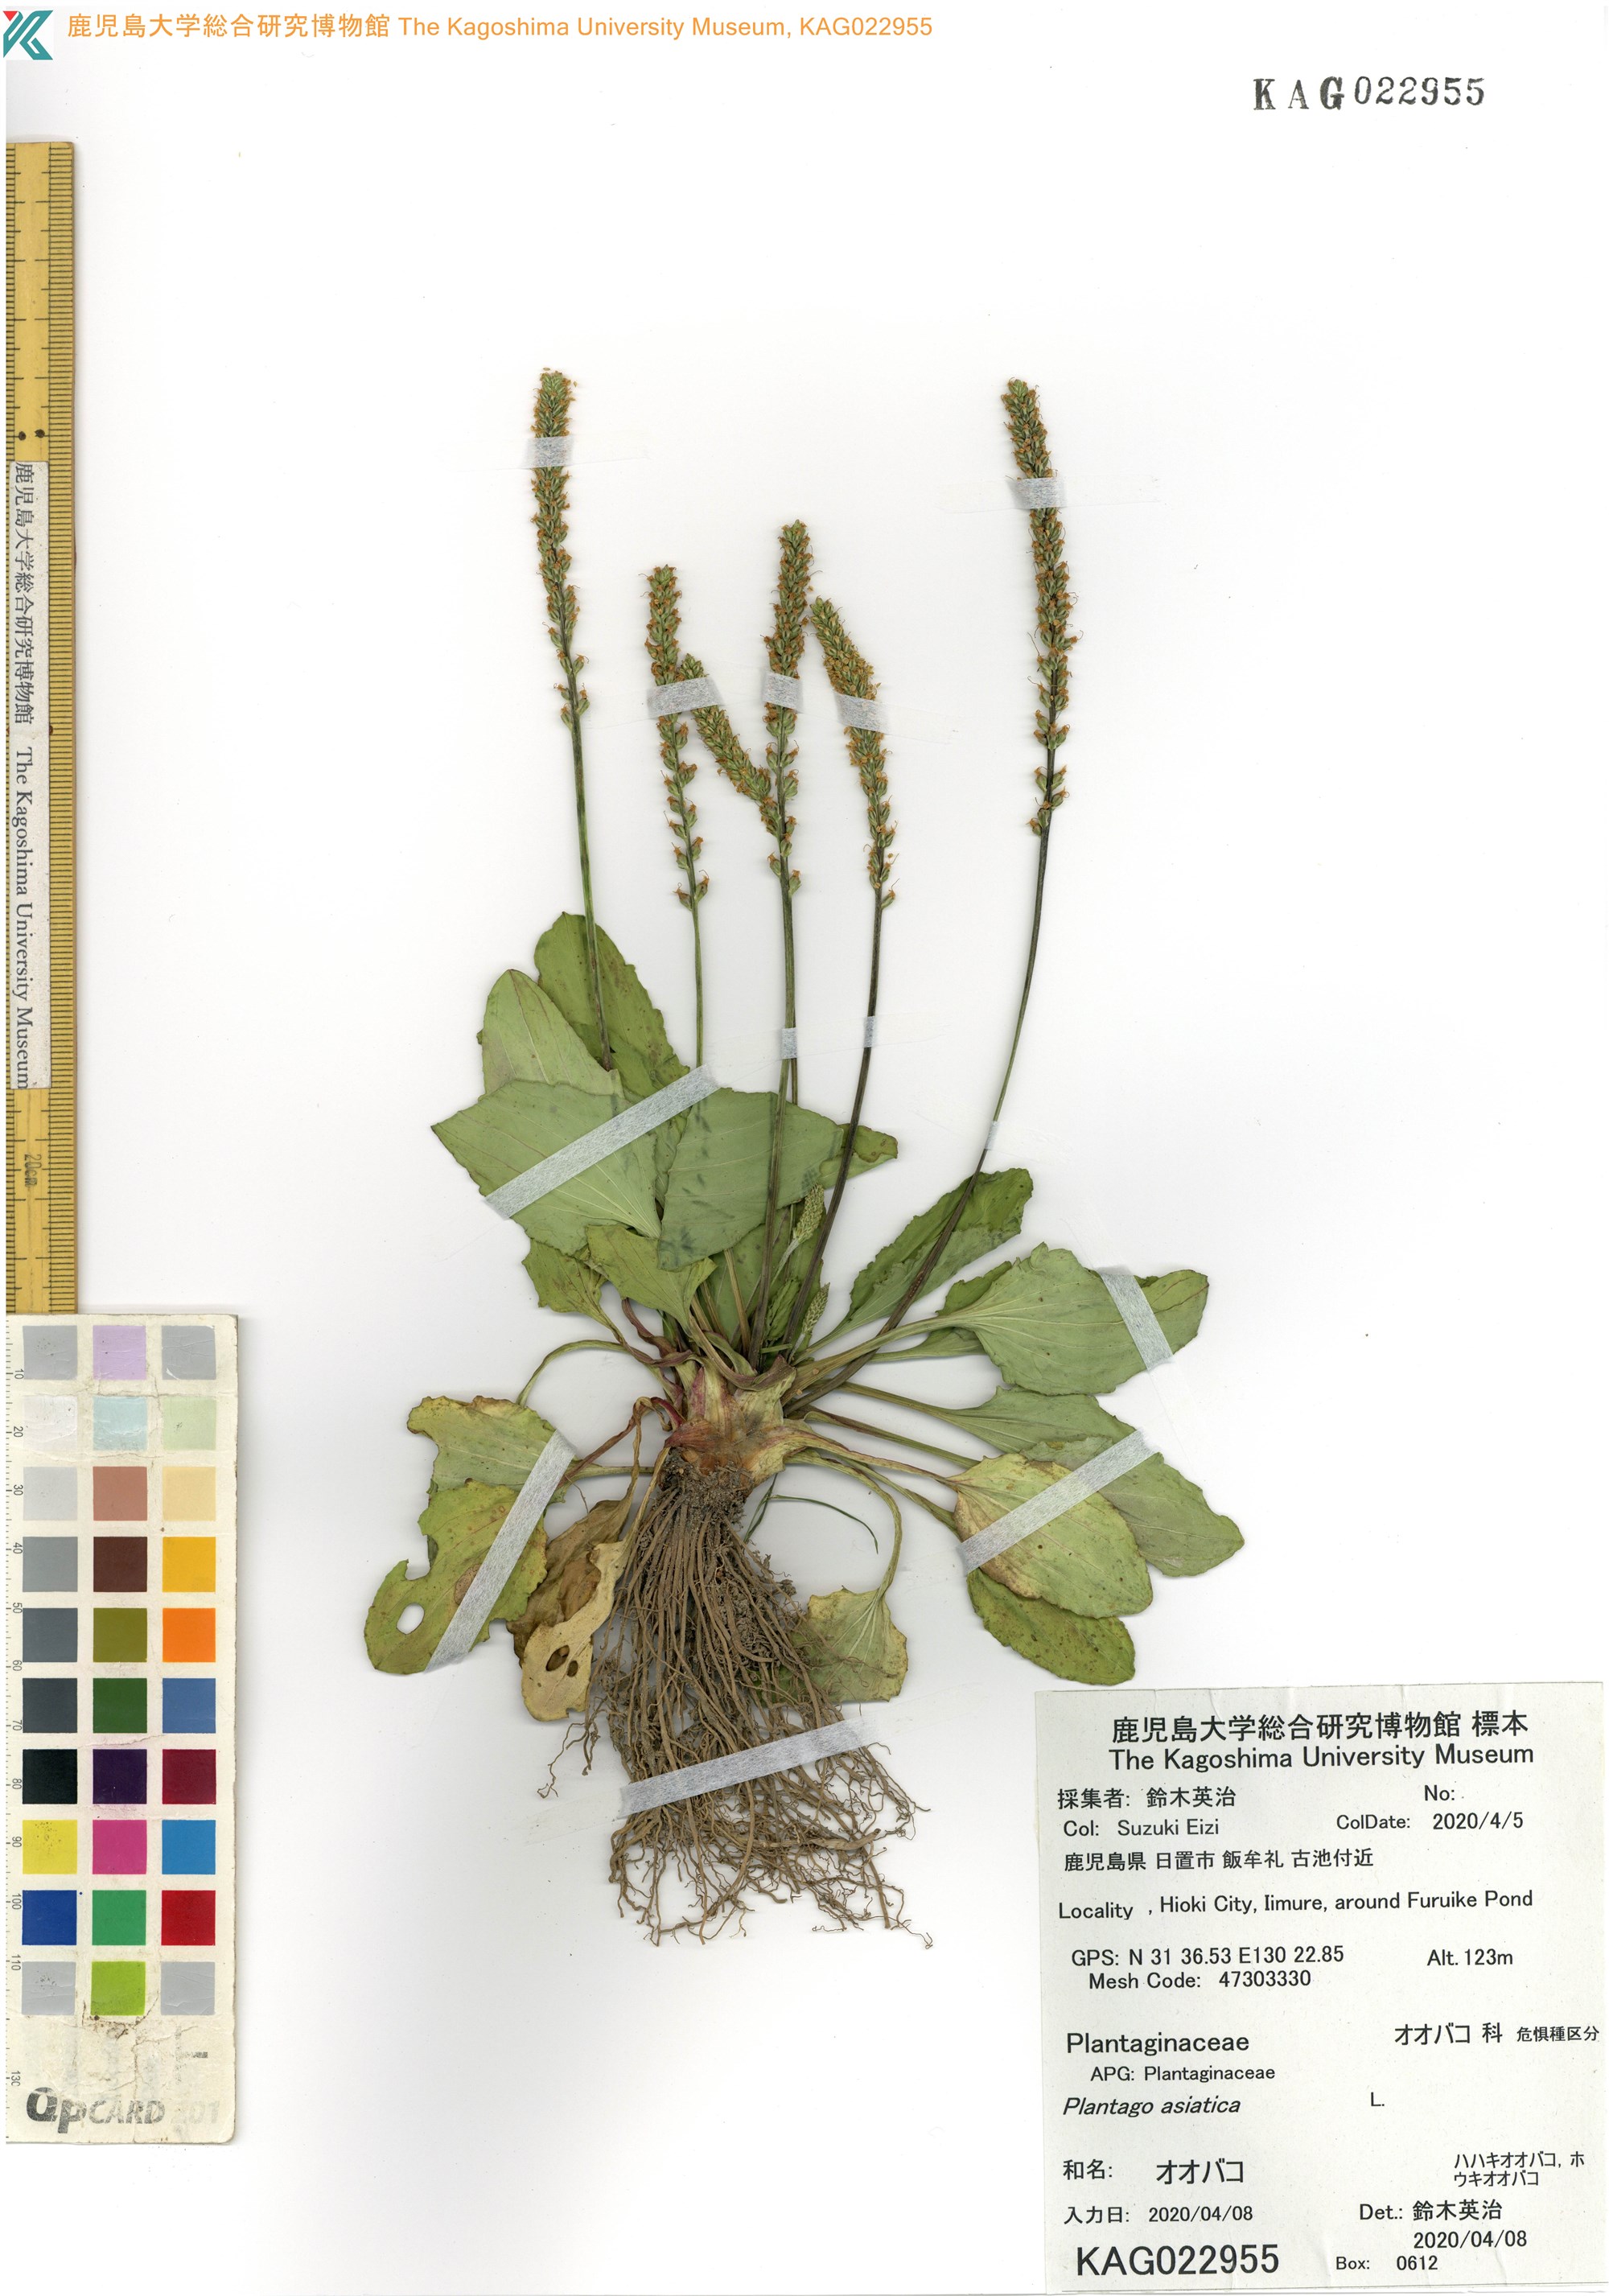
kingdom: Plantae
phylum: Tracheophyta
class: Magnoliopsida
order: Lamiales
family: Plantaginaceae
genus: Plantago
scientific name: Plantago asiatica
